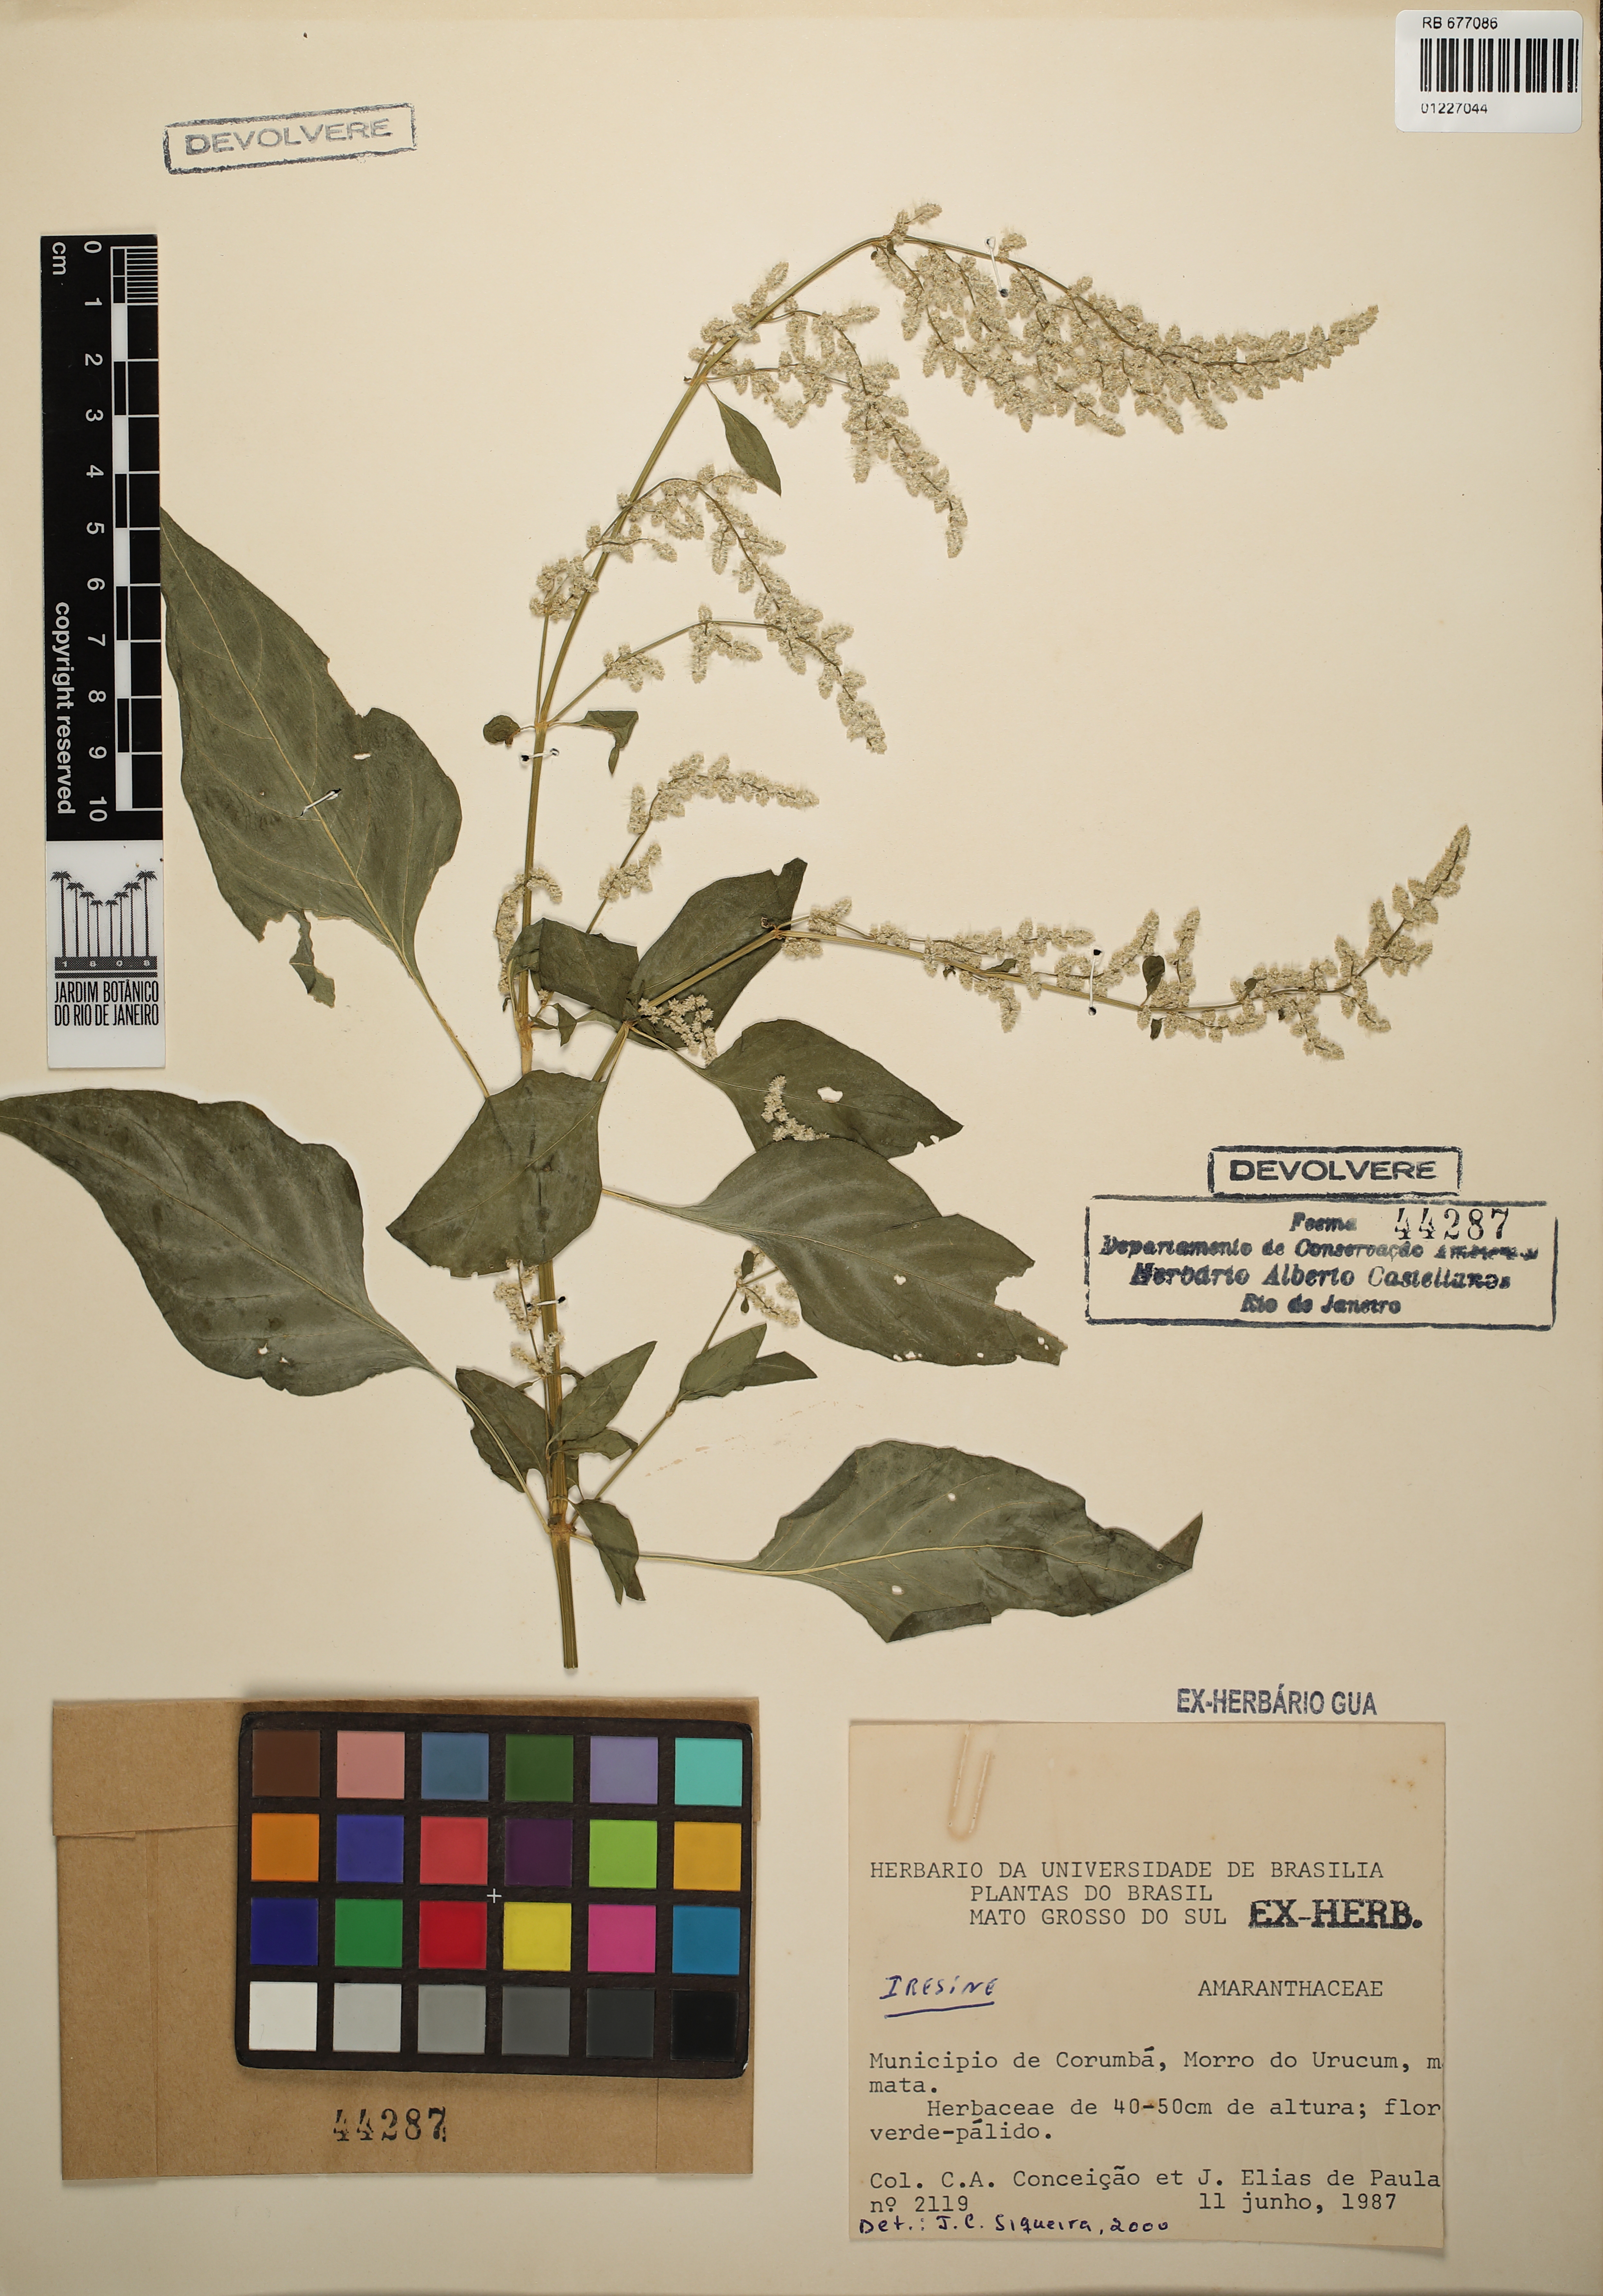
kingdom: Plantae
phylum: Tracheophyta
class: Magnoliopsida
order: Caryophyllales
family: Amaranthaceae
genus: Iresine
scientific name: Iresine
